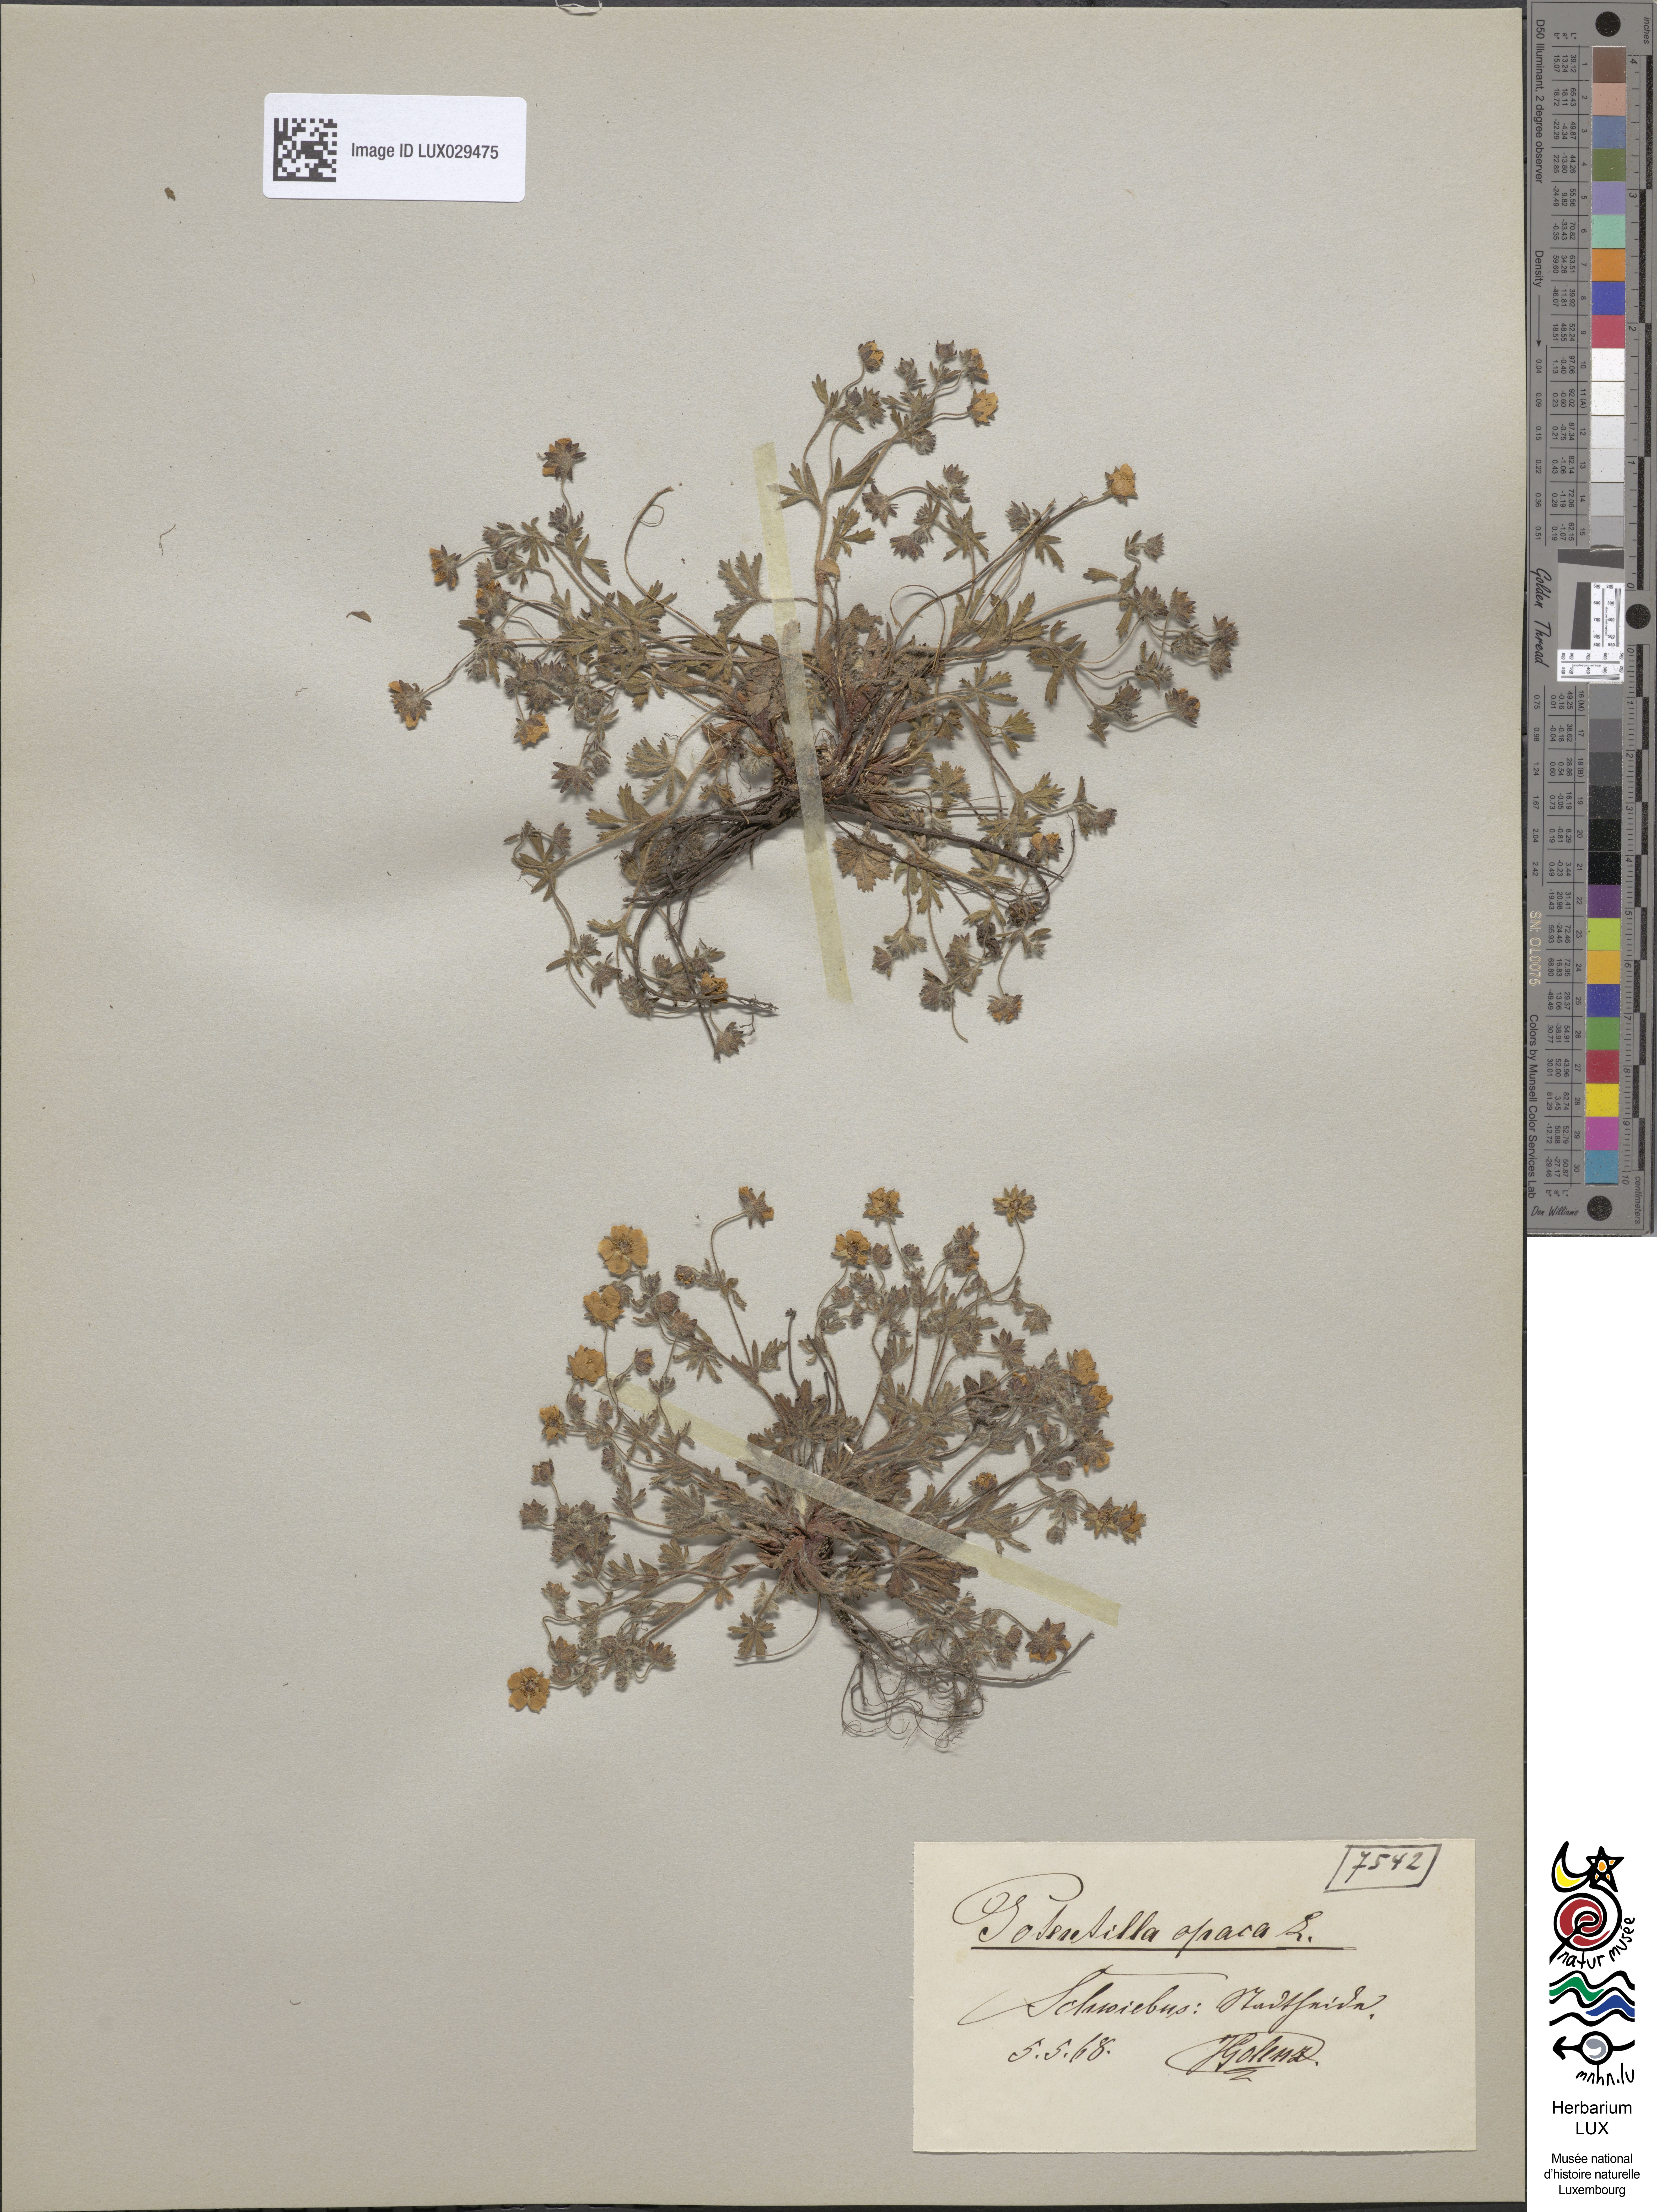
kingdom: Plantae
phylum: Tracheophyta
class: Magnoliopsida
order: Rosales
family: Rosaceae
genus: Potentilla
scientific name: Potentilla heptaphylla
